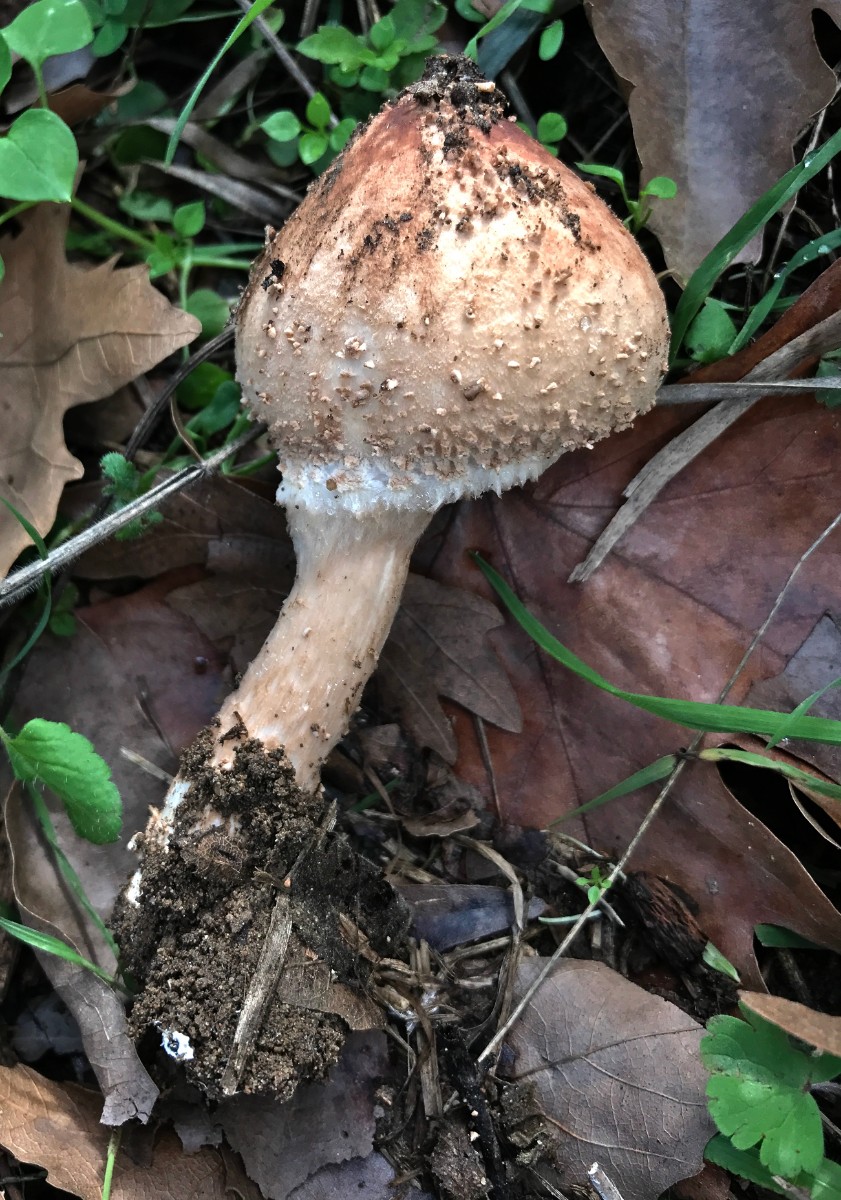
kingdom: Fungi
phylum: Basidiomycota
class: Agaricomycetes
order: Agaricales
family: Agaricaceae
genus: Echinoderma
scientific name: Echinoderma asperum
